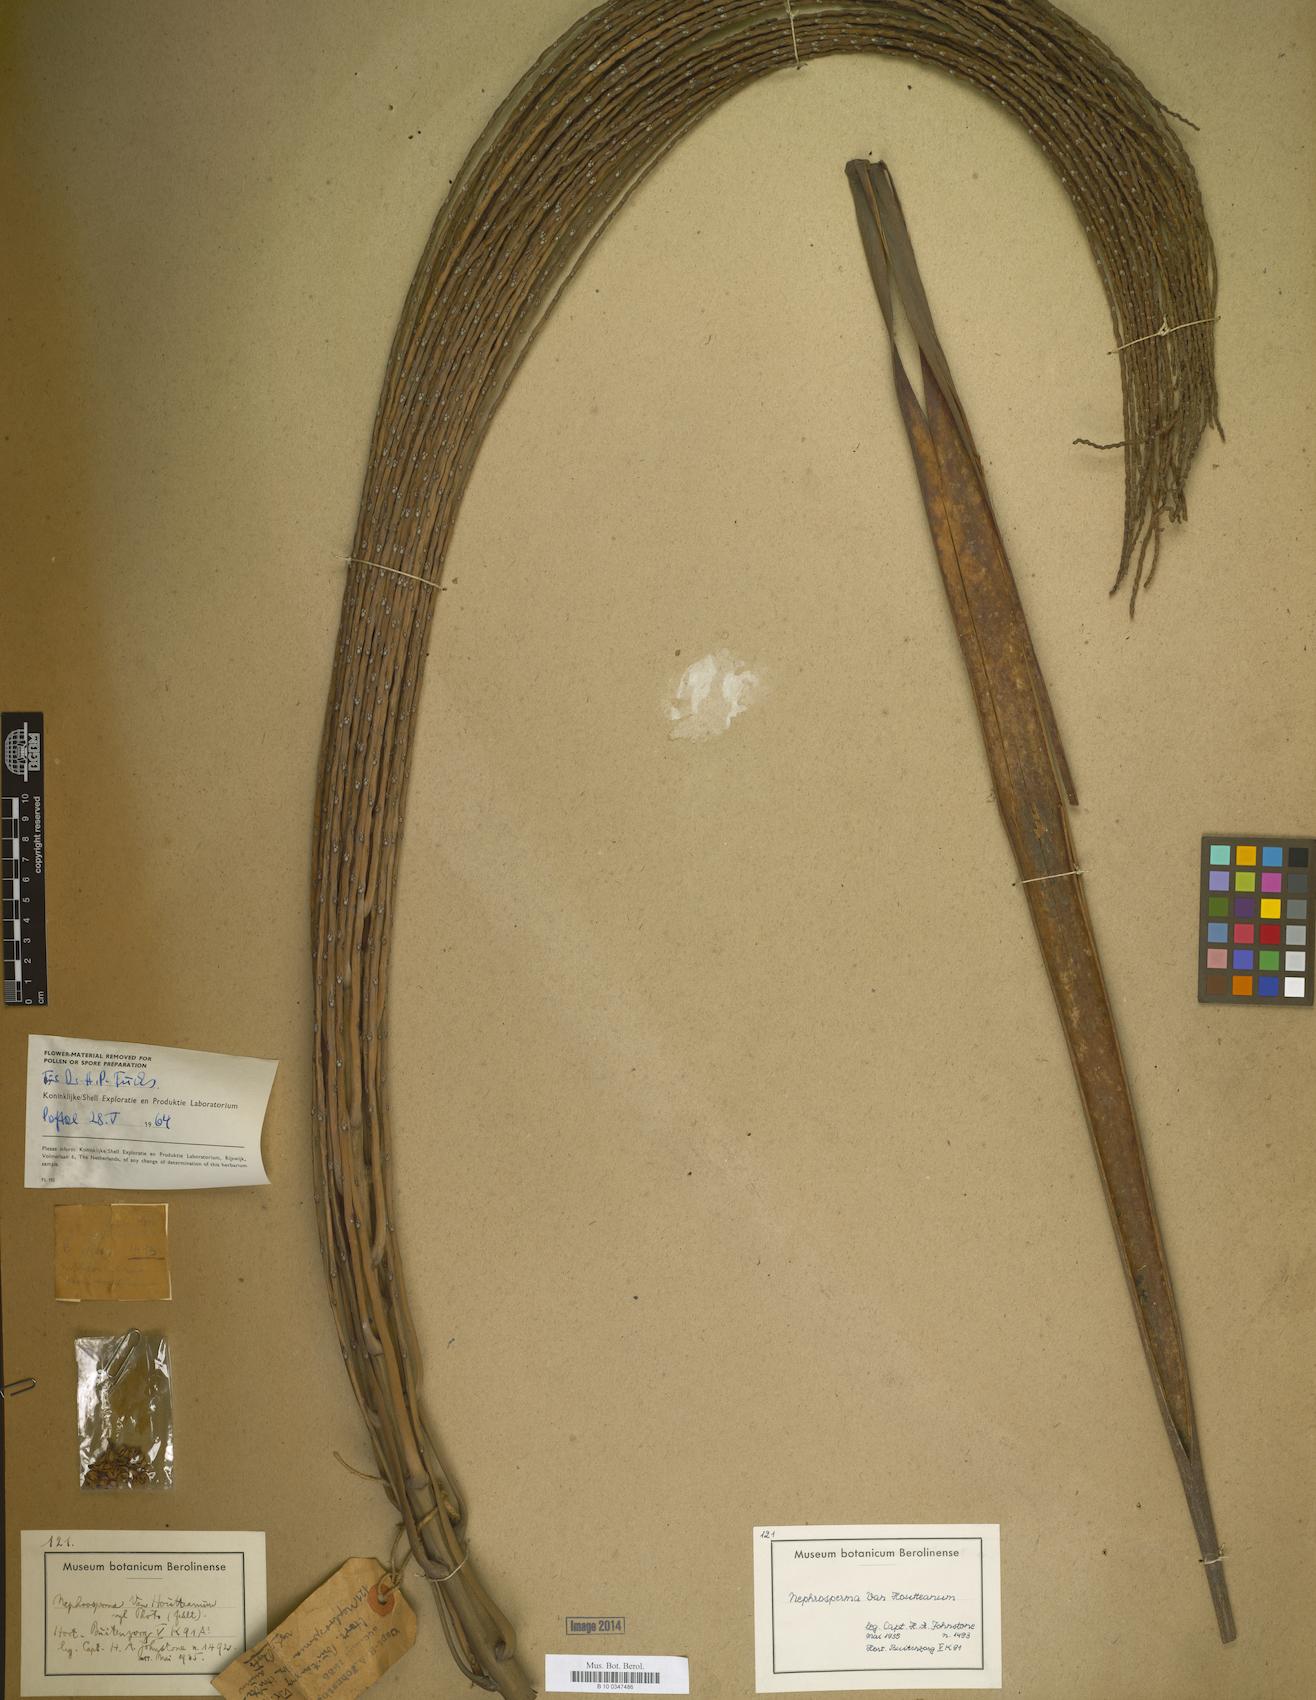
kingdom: Plantae
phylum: Tracheophyta
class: Liliopsida
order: Arecales
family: Arecaceae
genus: Nephrosperma
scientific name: Nephrosperma vanhoutteanum
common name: Seychelles palm
